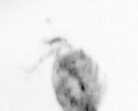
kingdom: Animalia
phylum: Arthropoda
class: Copepoda
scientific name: Copepoda
